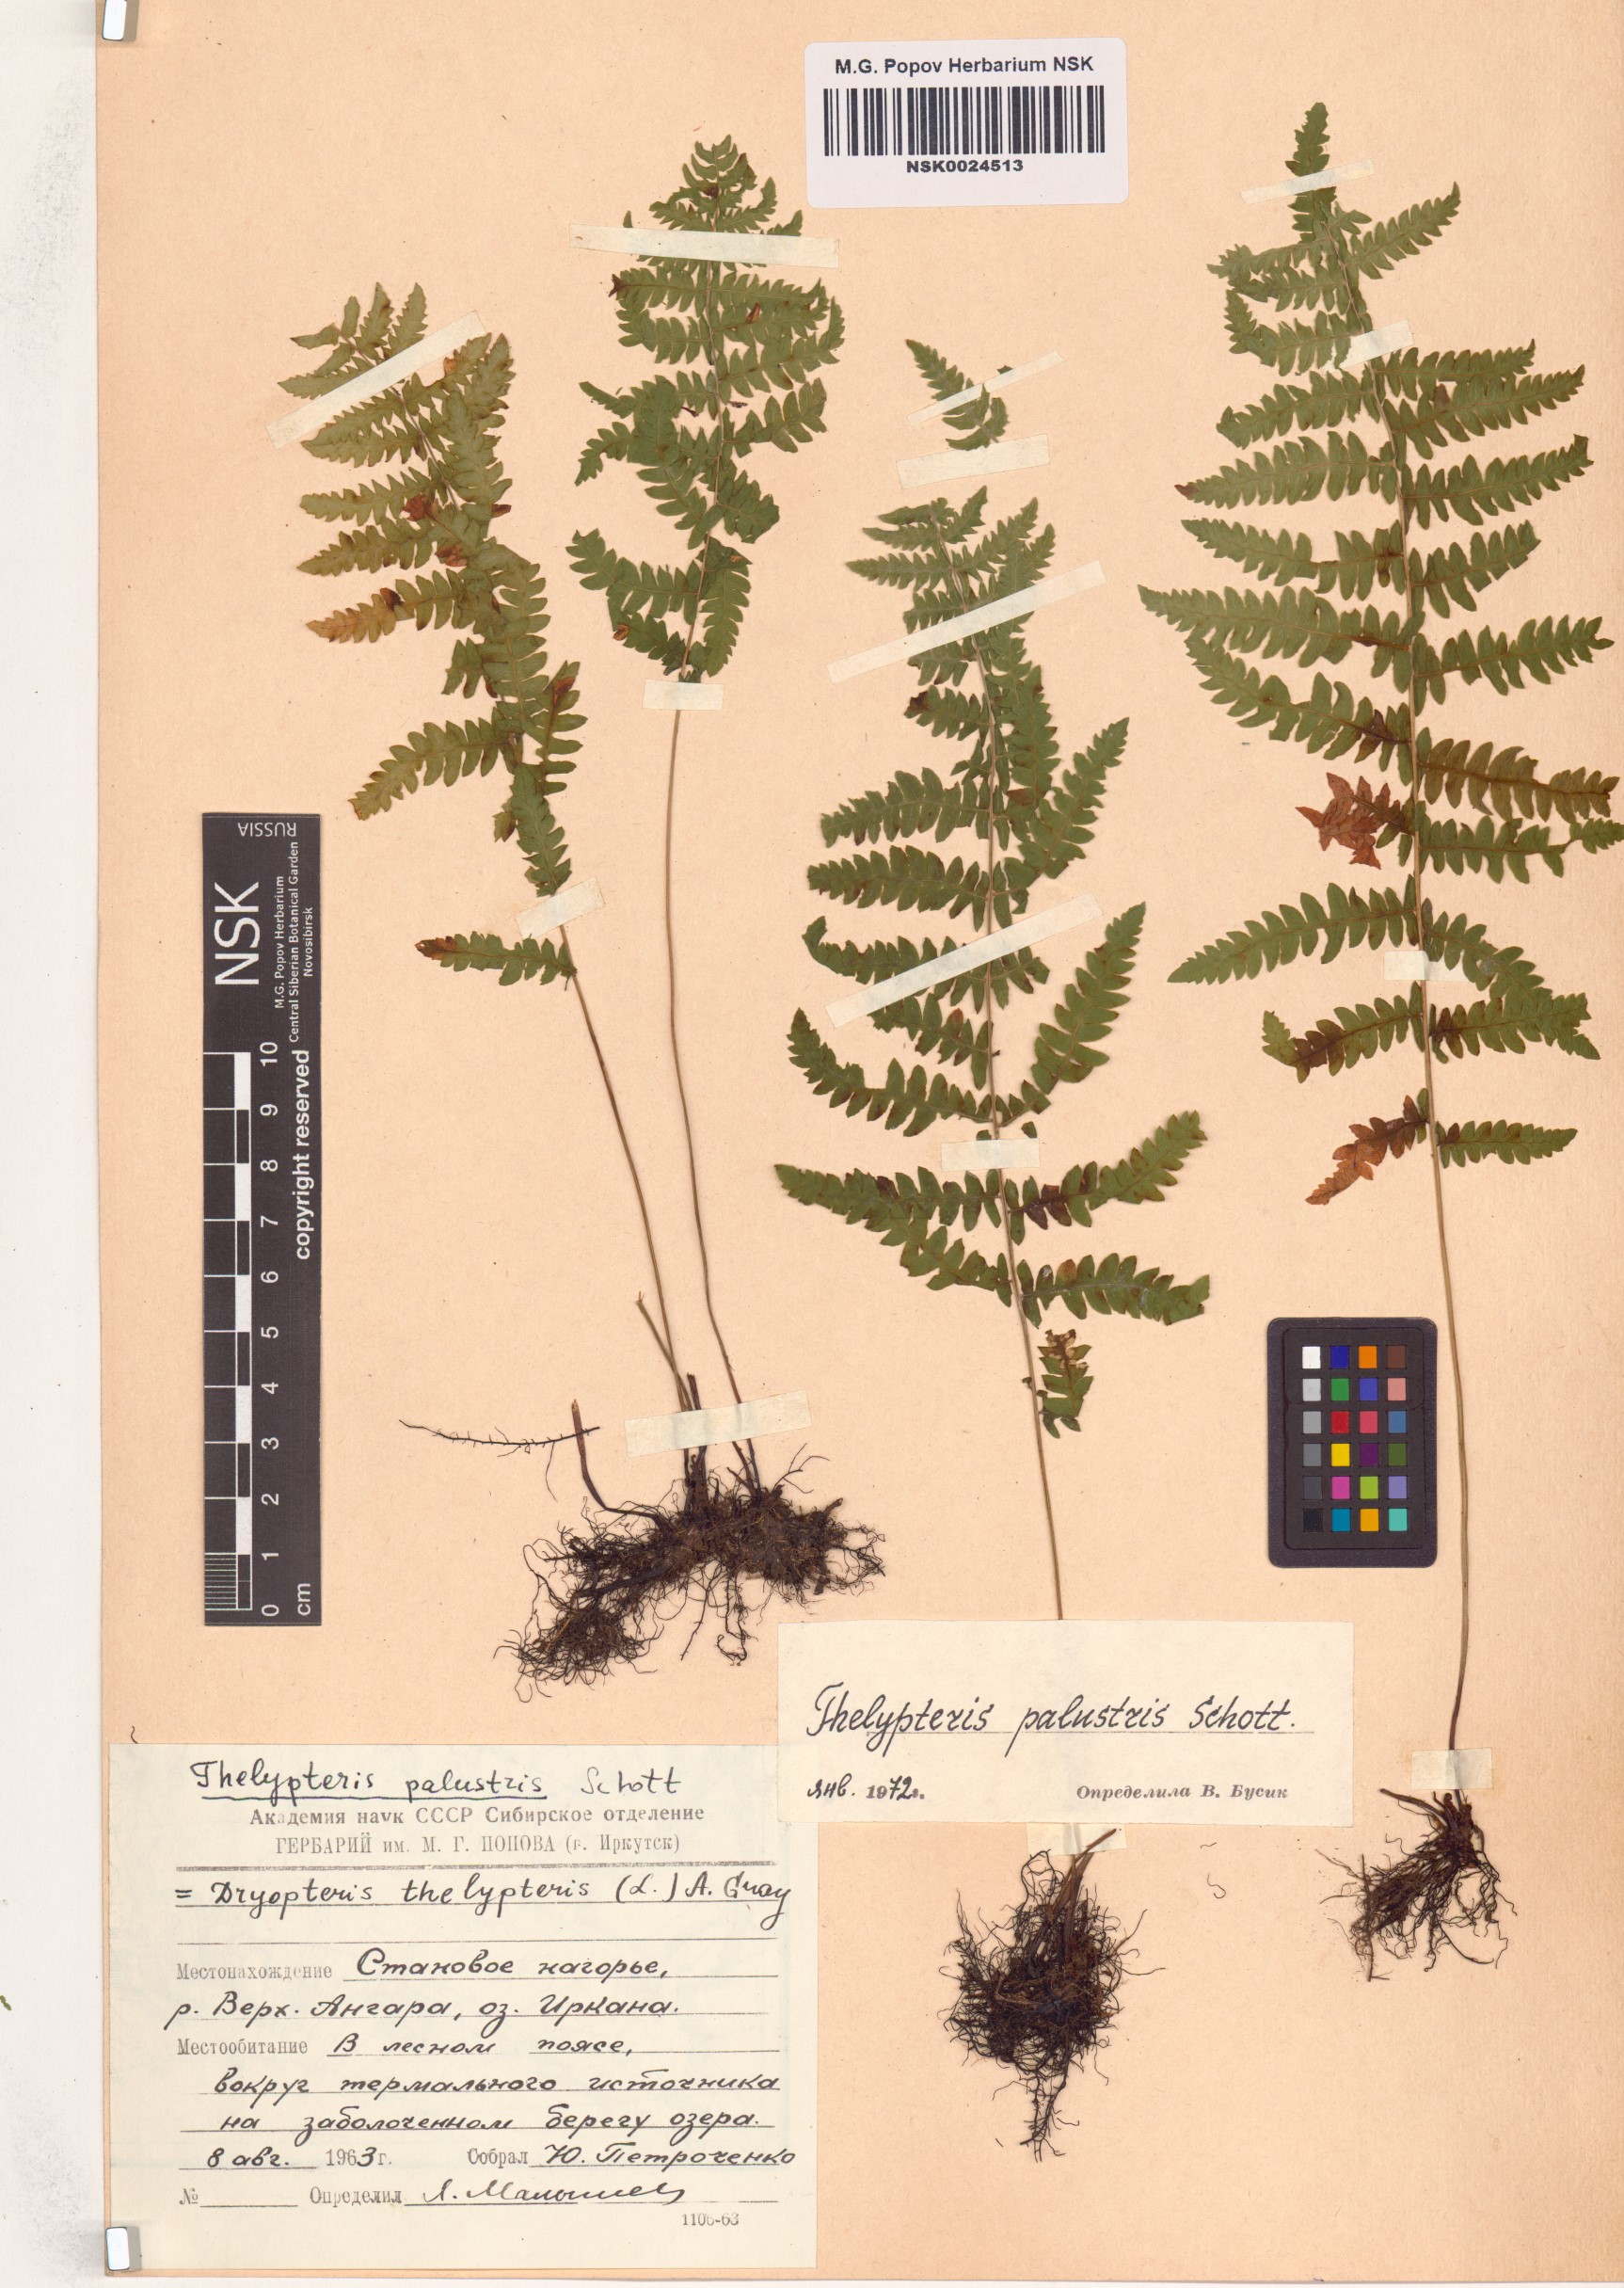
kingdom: Plantae
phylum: Tracheophyta
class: Polypodiopsida
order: Polypodiales
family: Thelypteridaceae
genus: Thelypteris
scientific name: Thelypteris palustris
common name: Marsh fern
